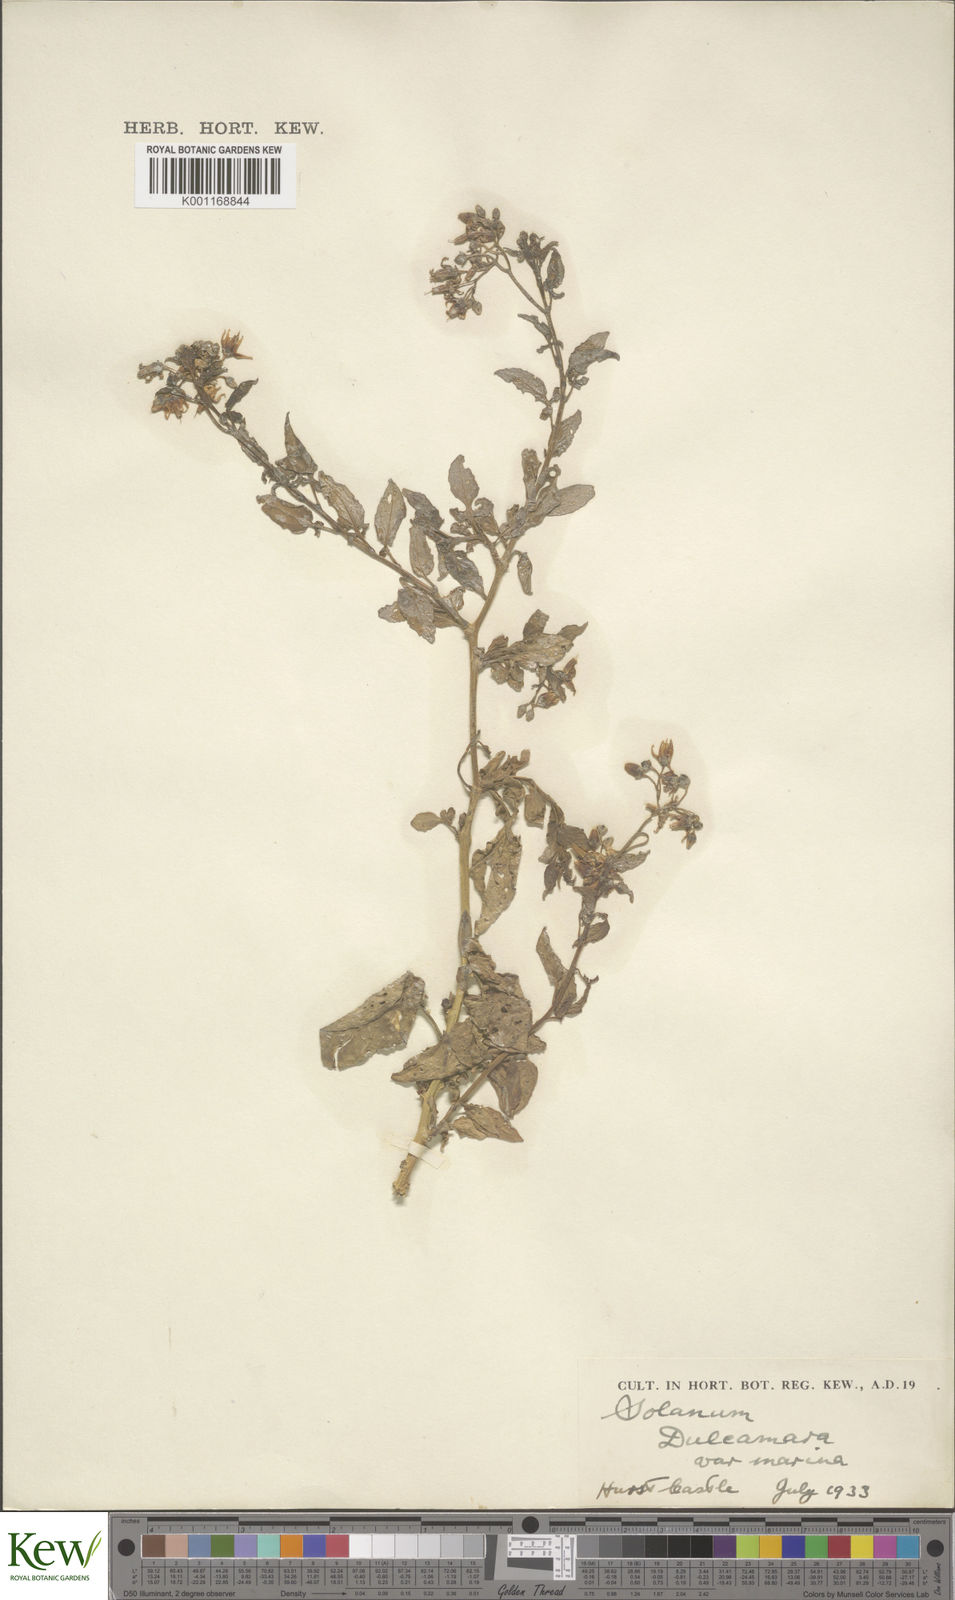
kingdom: Plantae
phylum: Tracheophyta
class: Magnoliopsida
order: Solanales
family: Solanaceae
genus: Solanum
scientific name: Solanum dulcamara
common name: Climbing nightshade
